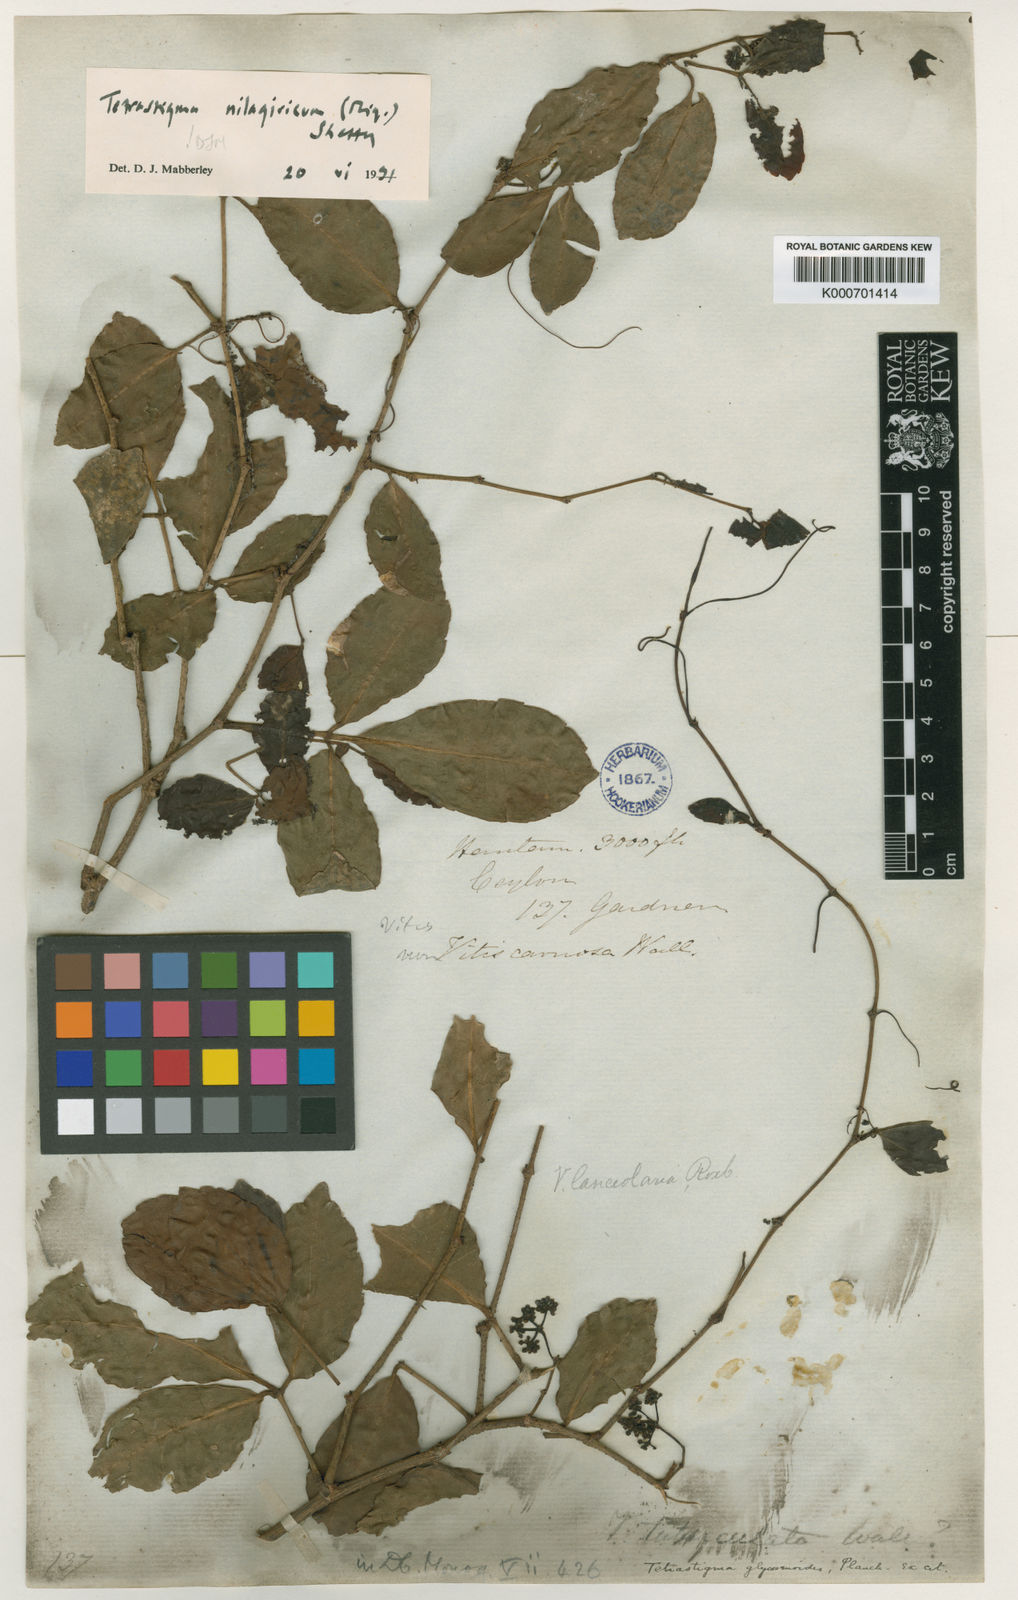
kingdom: Plantae
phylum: Tracheophyta
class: Magnoliopsida
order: Vitales
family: Vitaceae
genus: Tetrastigma
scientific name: Tetrastigma nilagiricum
